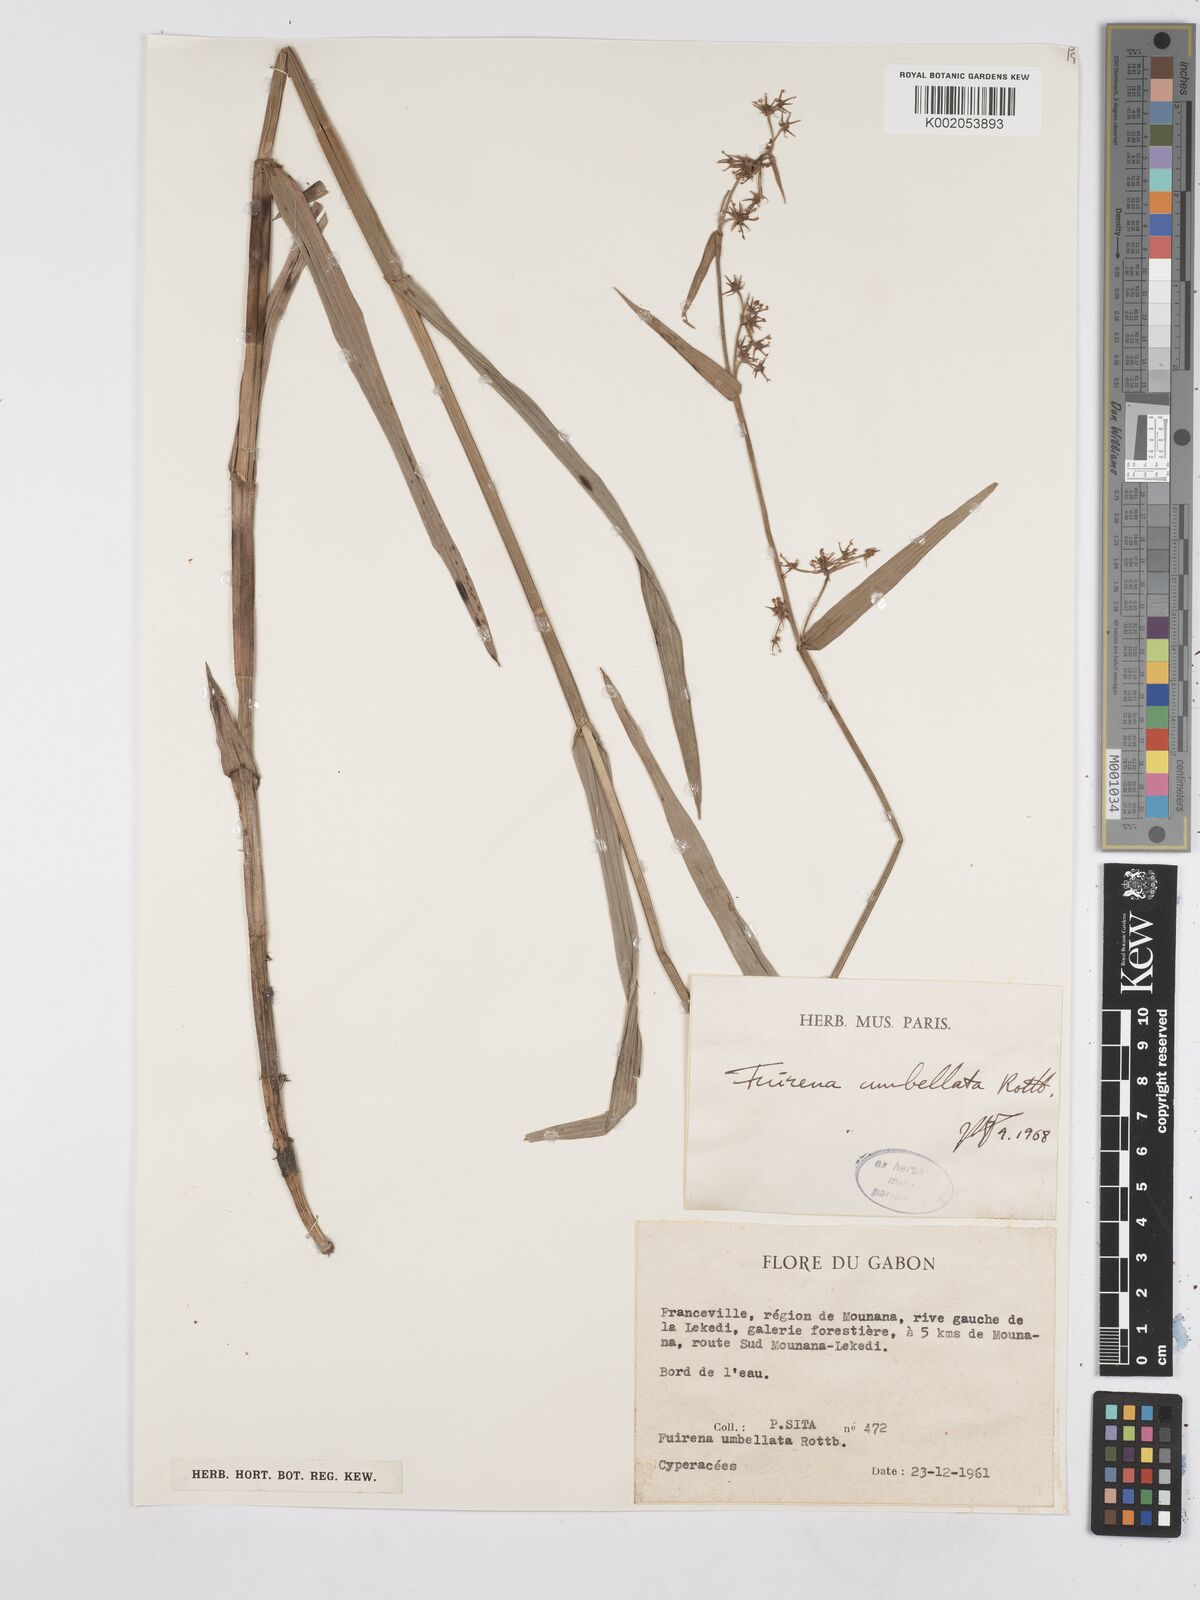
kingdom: Plantae
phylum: Tracheophyta
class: Liliopsida
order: Poales
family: Cyperaceae
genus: Fuirena
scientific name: Fuirena umbellata
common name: Yefen
